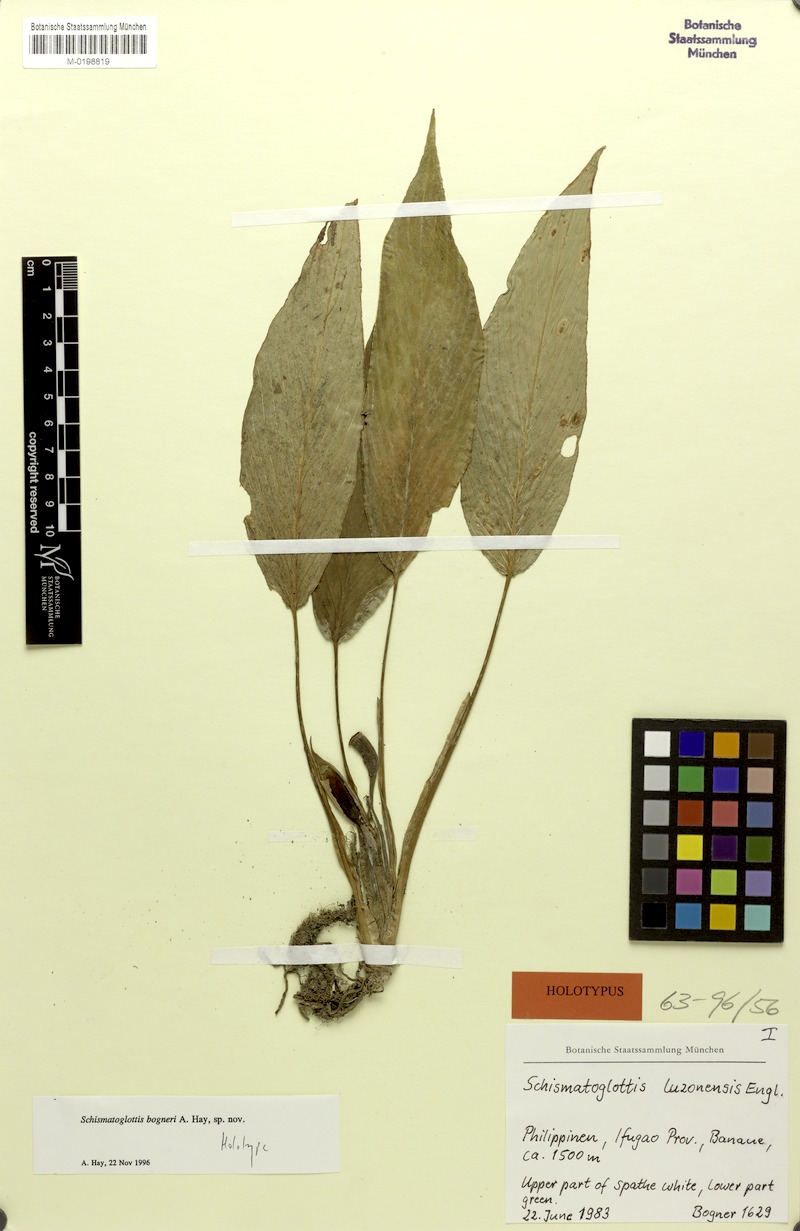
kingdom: Plantae
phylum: Tracheophyta
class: Liliopsida
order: Alismatales
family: Araceae
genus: Schismatoglottis
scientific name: Schismatoglottis bogneri
